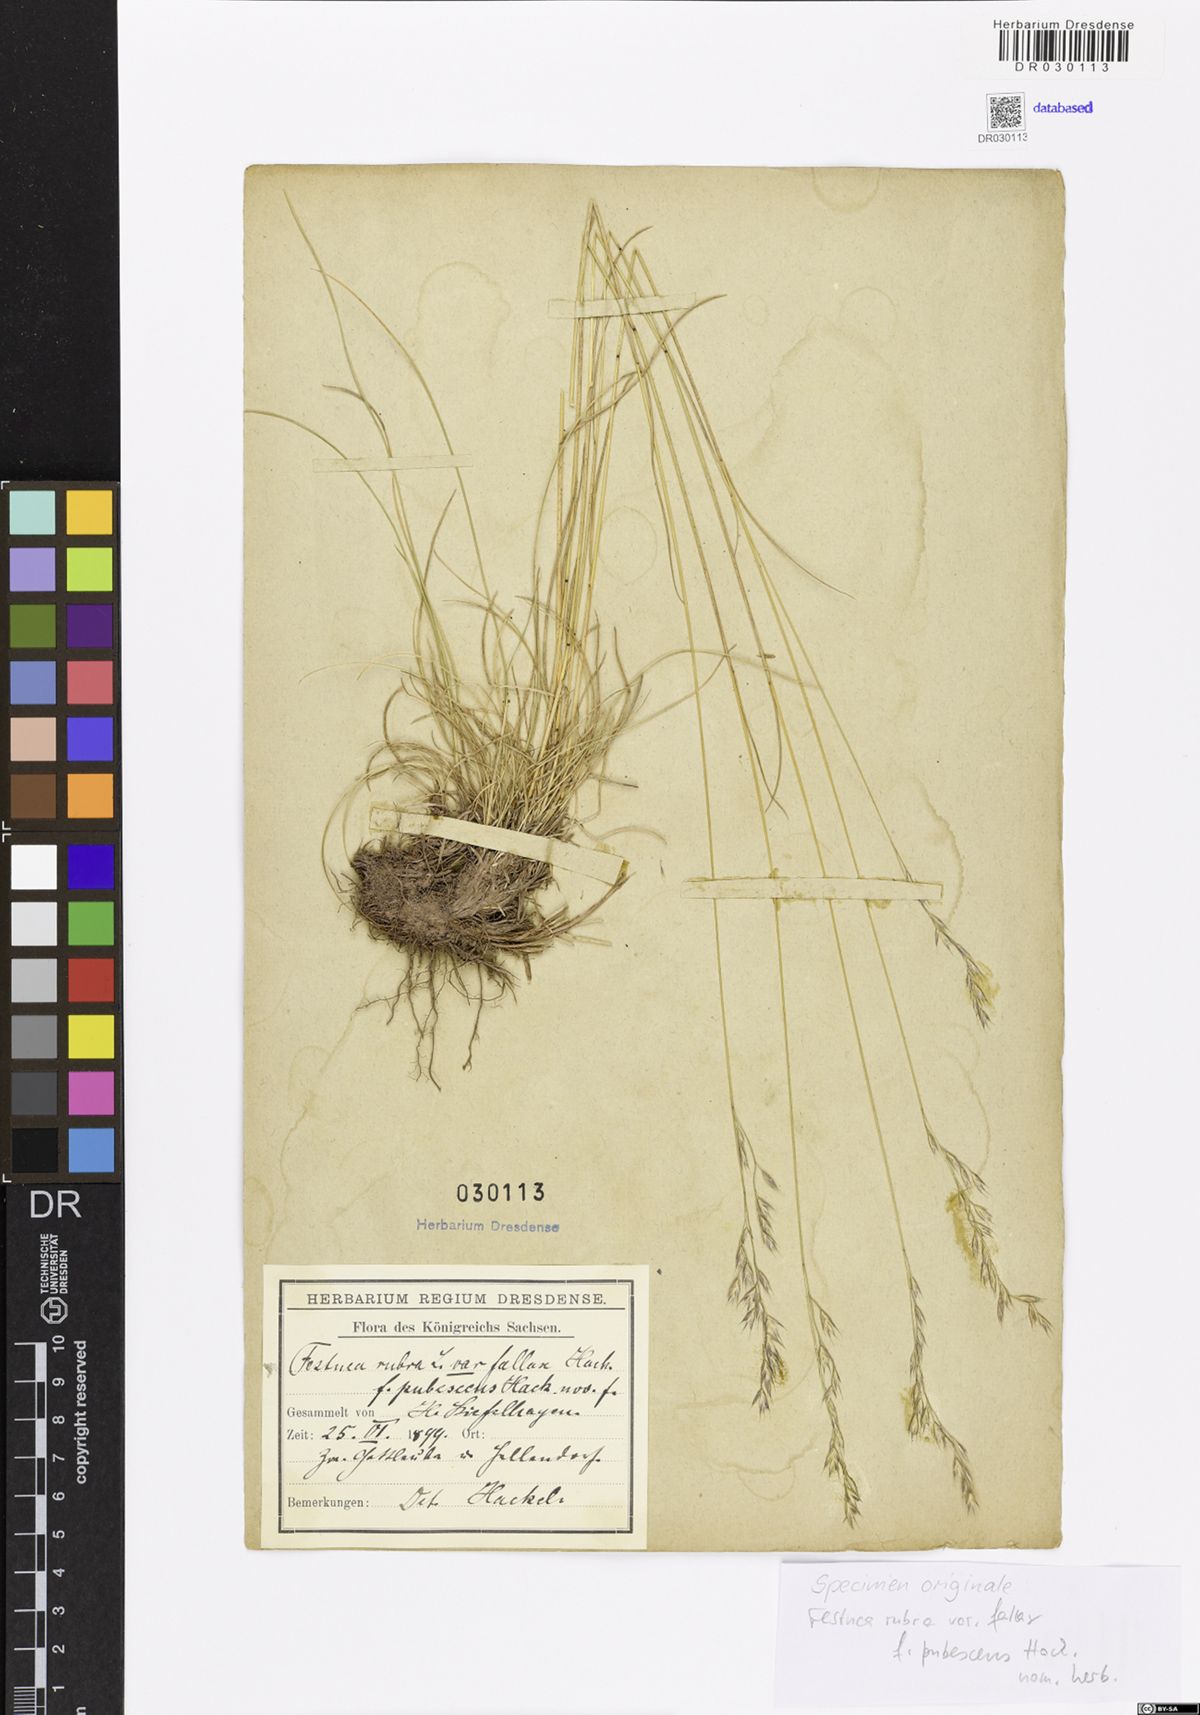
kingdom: Plantae
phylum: Tracheophyta
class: Liliopsida
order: Poales
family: Poaceae
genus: Festuca
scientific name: Festuca heteromalla
